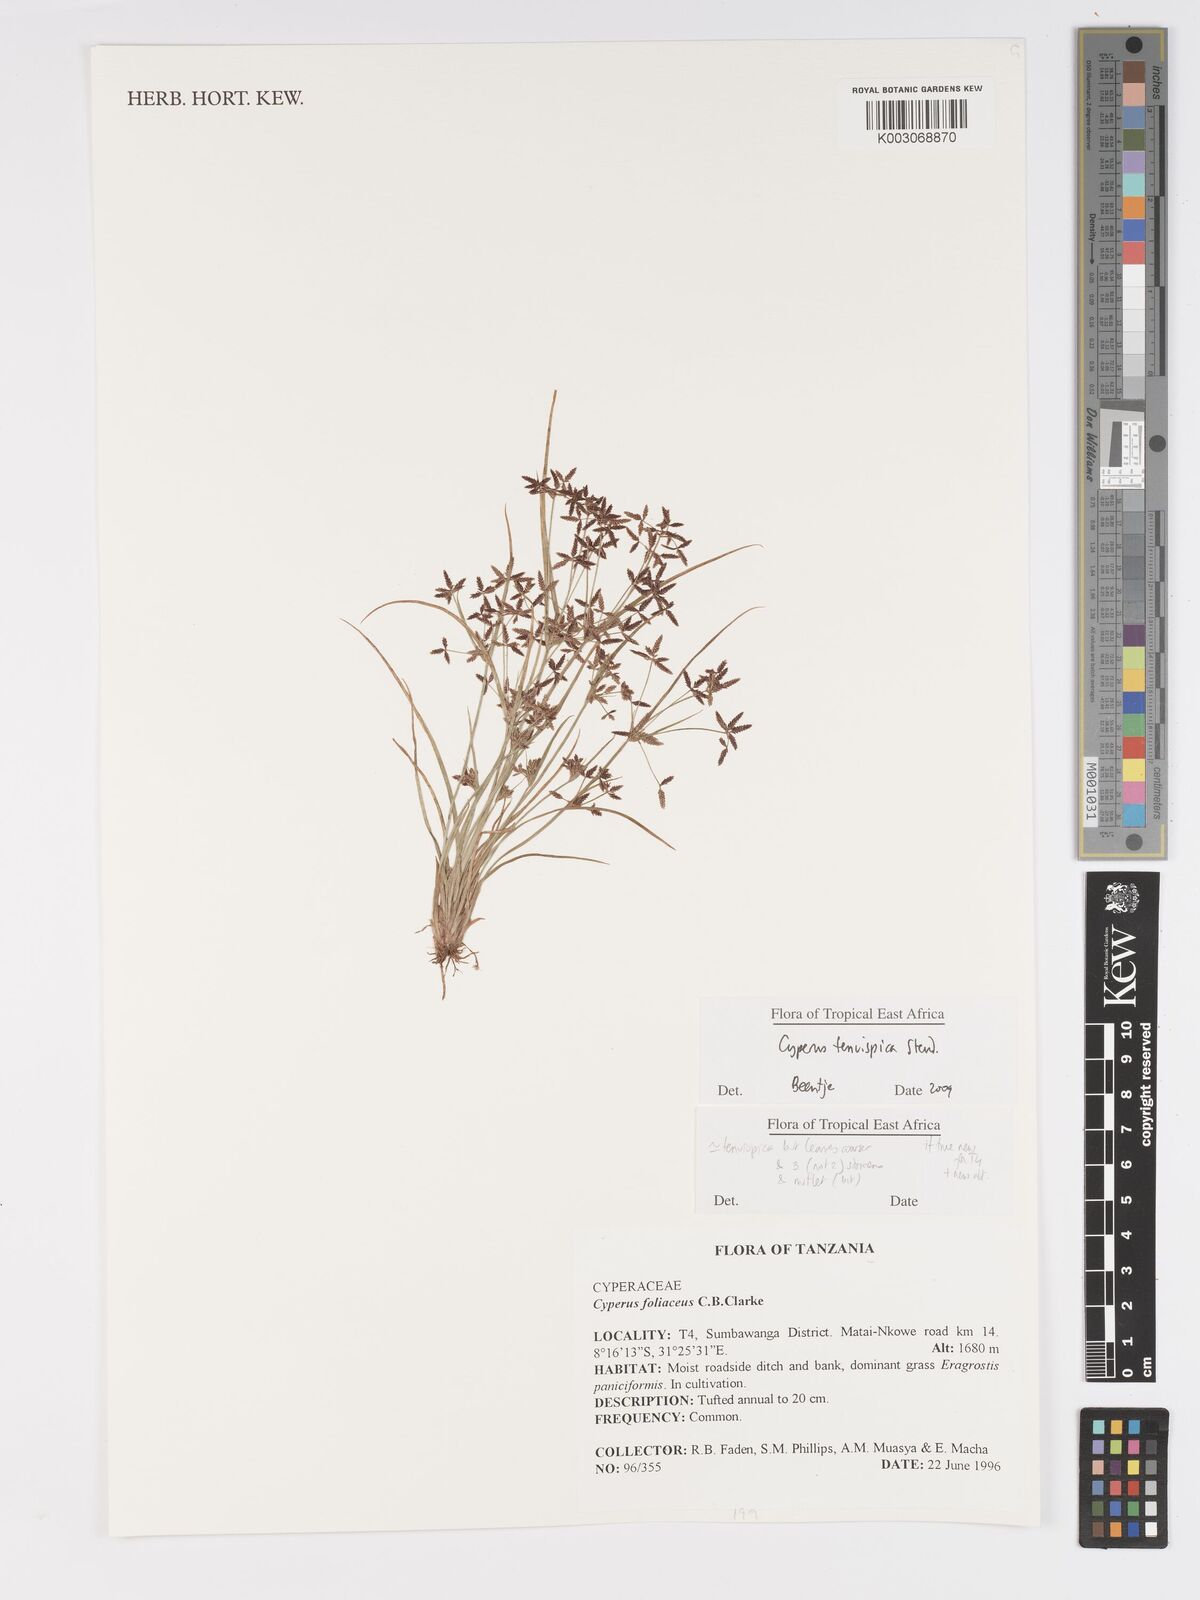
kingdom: Plantae
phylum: Tracheophyta
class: Liliopsida
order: Poales
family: Cyperaceae
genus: Cyperus
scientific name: Cyperus tenuispica
